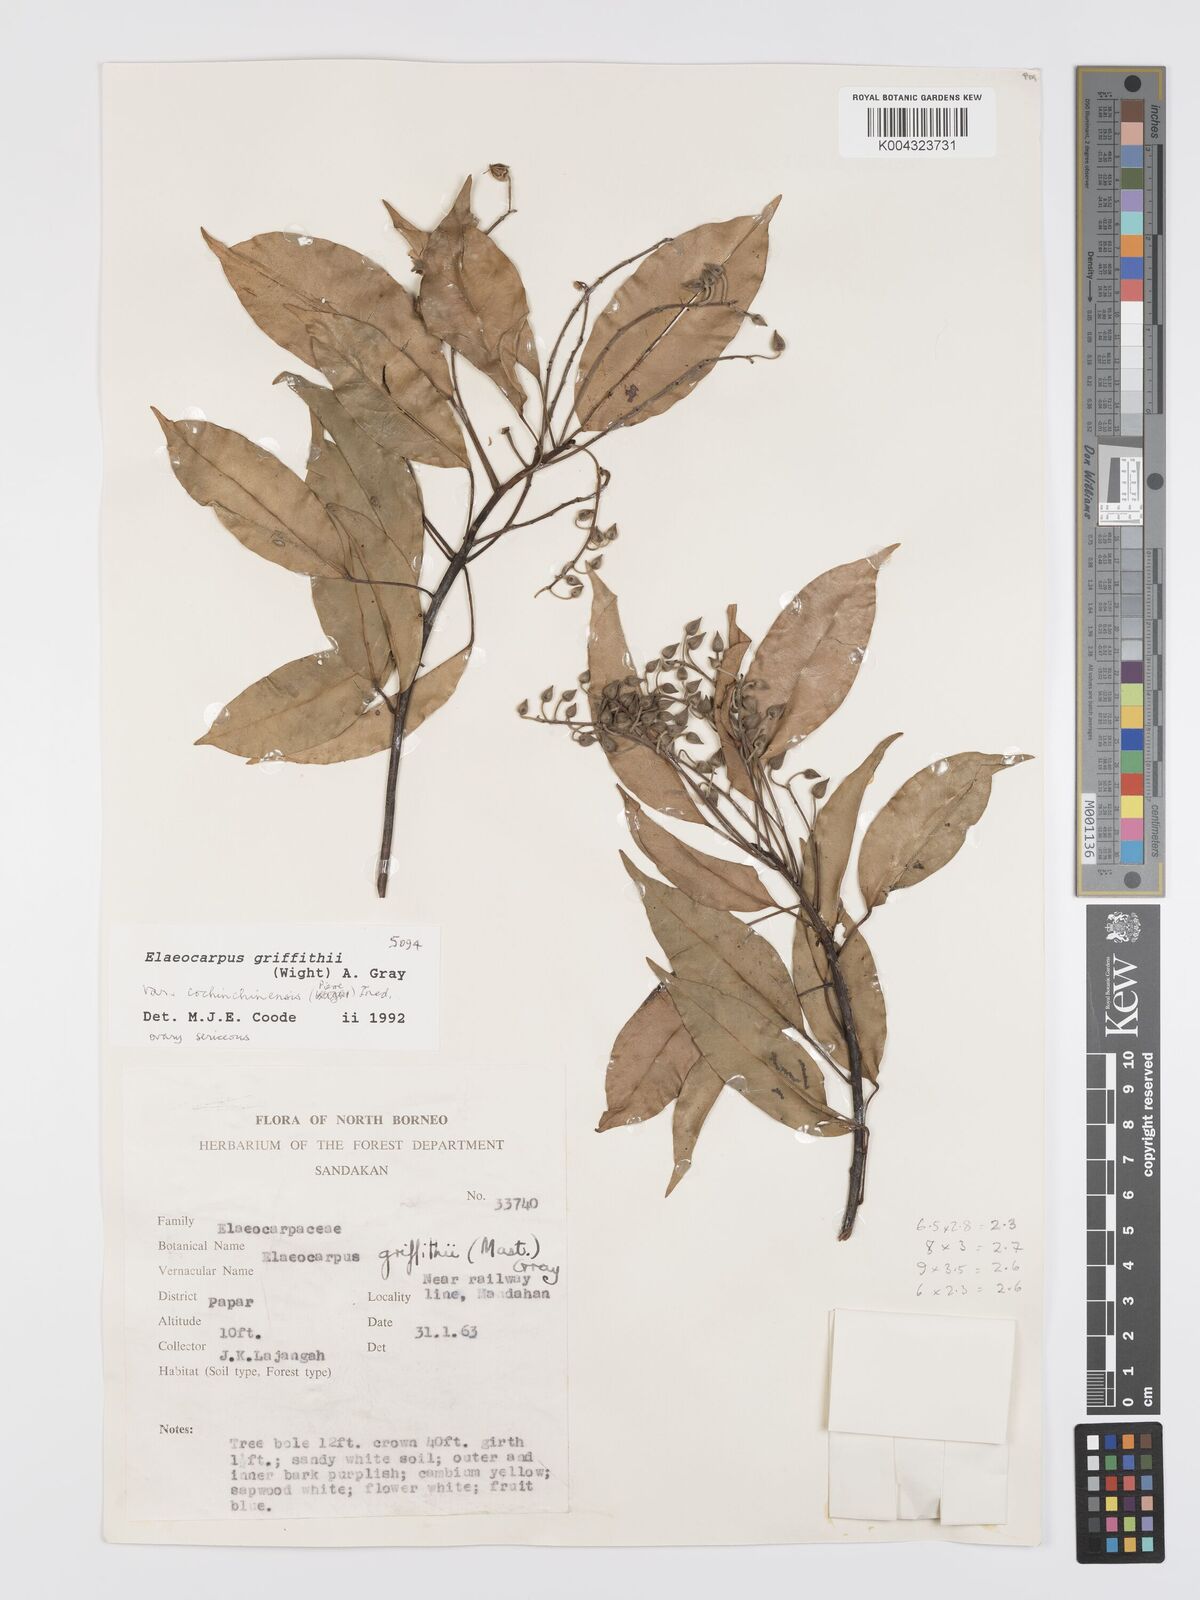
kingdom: Plantae
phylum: Tracheophyta
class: Magnoliopsida
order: Oxalidales
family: Elaeocarpaceae
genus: Elaeocarpus
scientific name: Elaeocarpus griffithii
